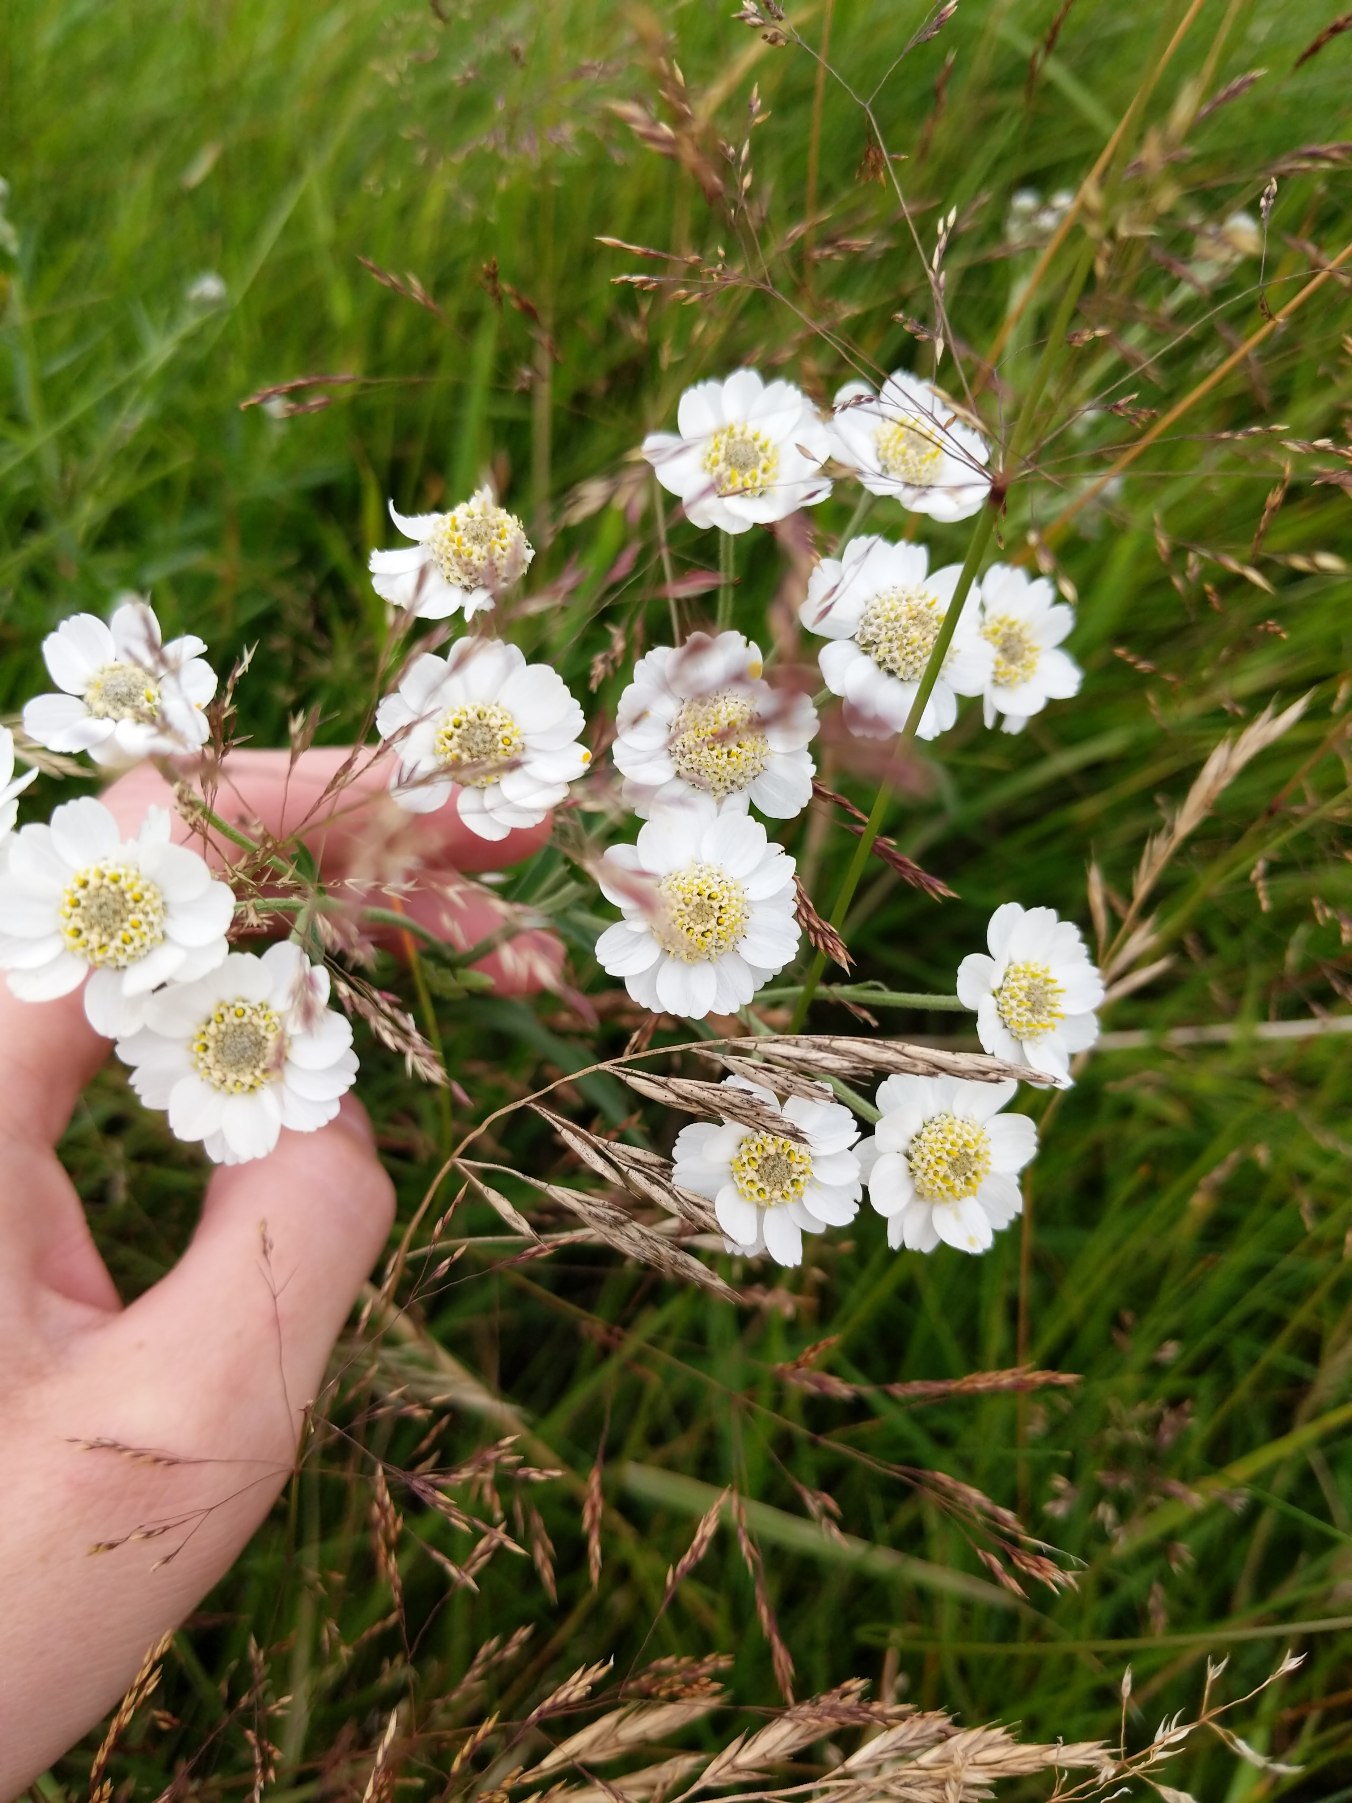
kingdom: Plantae
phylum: Tracheophyta
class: Magnoliopsida
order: Asterales
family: Asteraceae
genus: Achillea
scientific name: Achillea ptarmica
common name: Nyse-røllike
